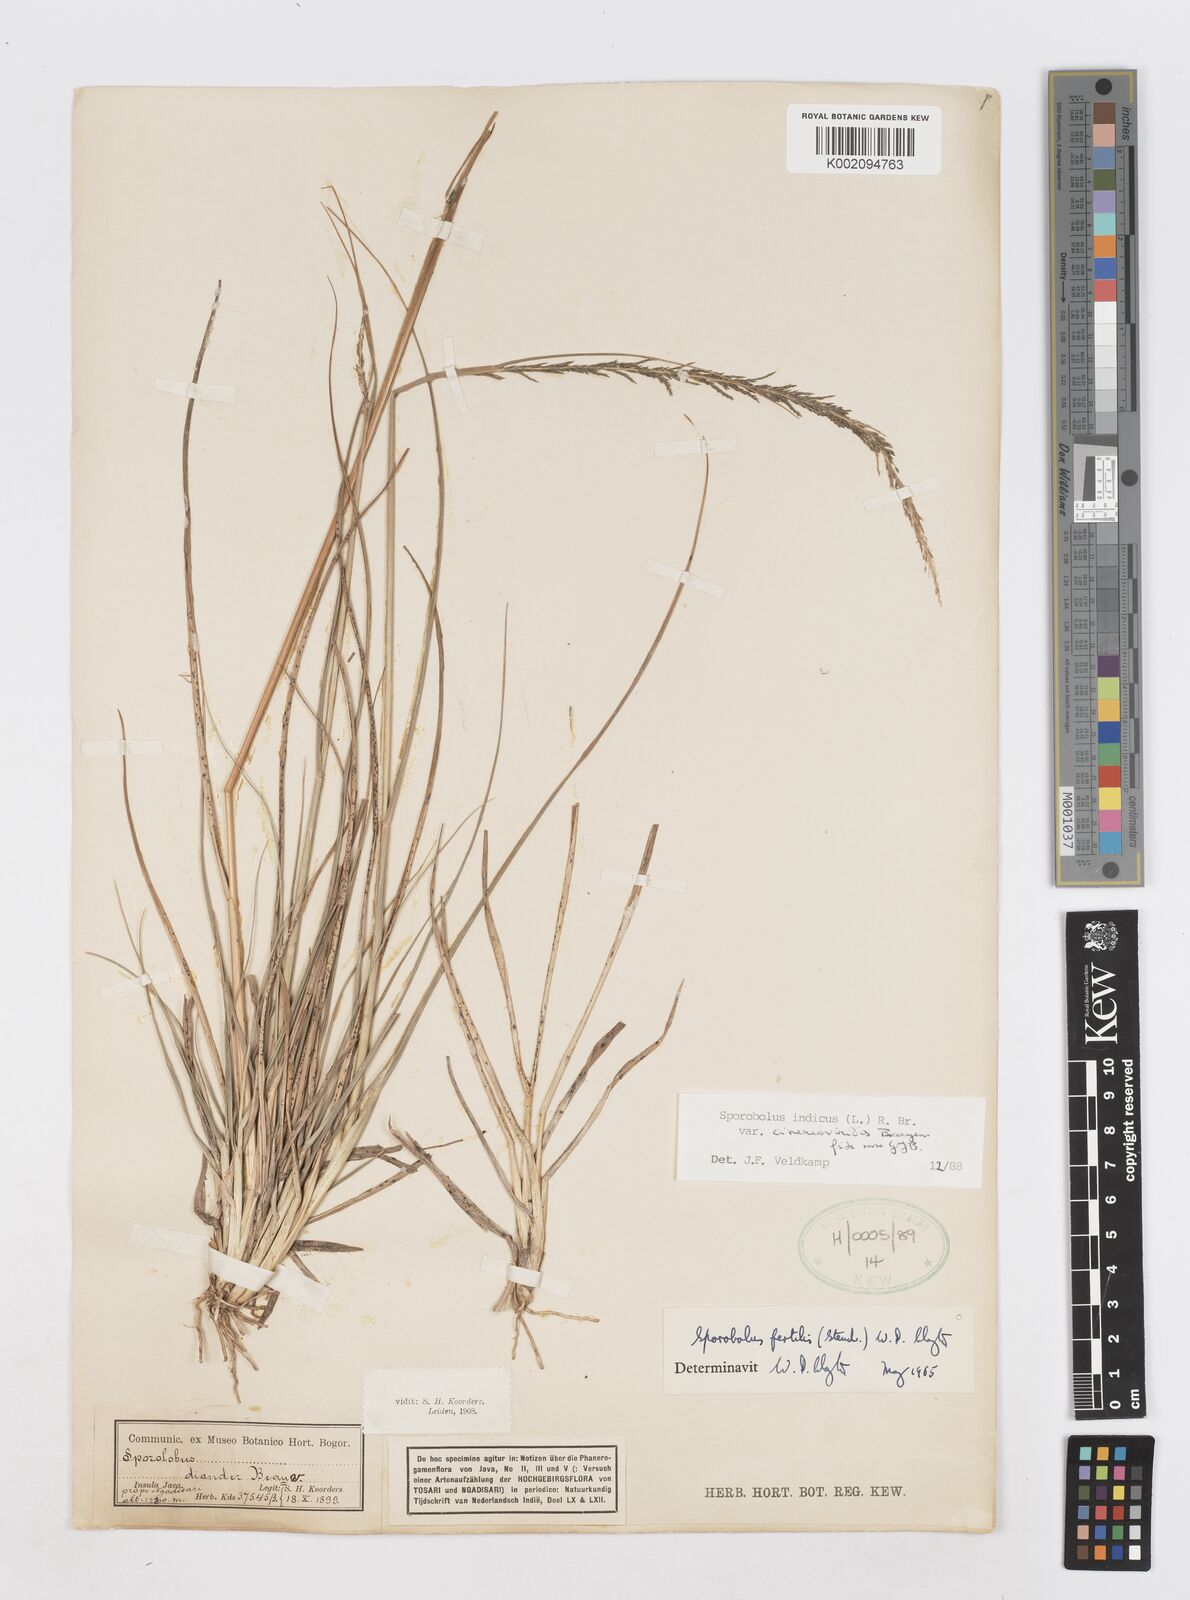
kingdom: Plantae
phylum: Tracheophyta
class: Liliopsida
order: Poales
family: Poaceae
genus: Sporobolus
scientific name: Sporobolus fertilis
